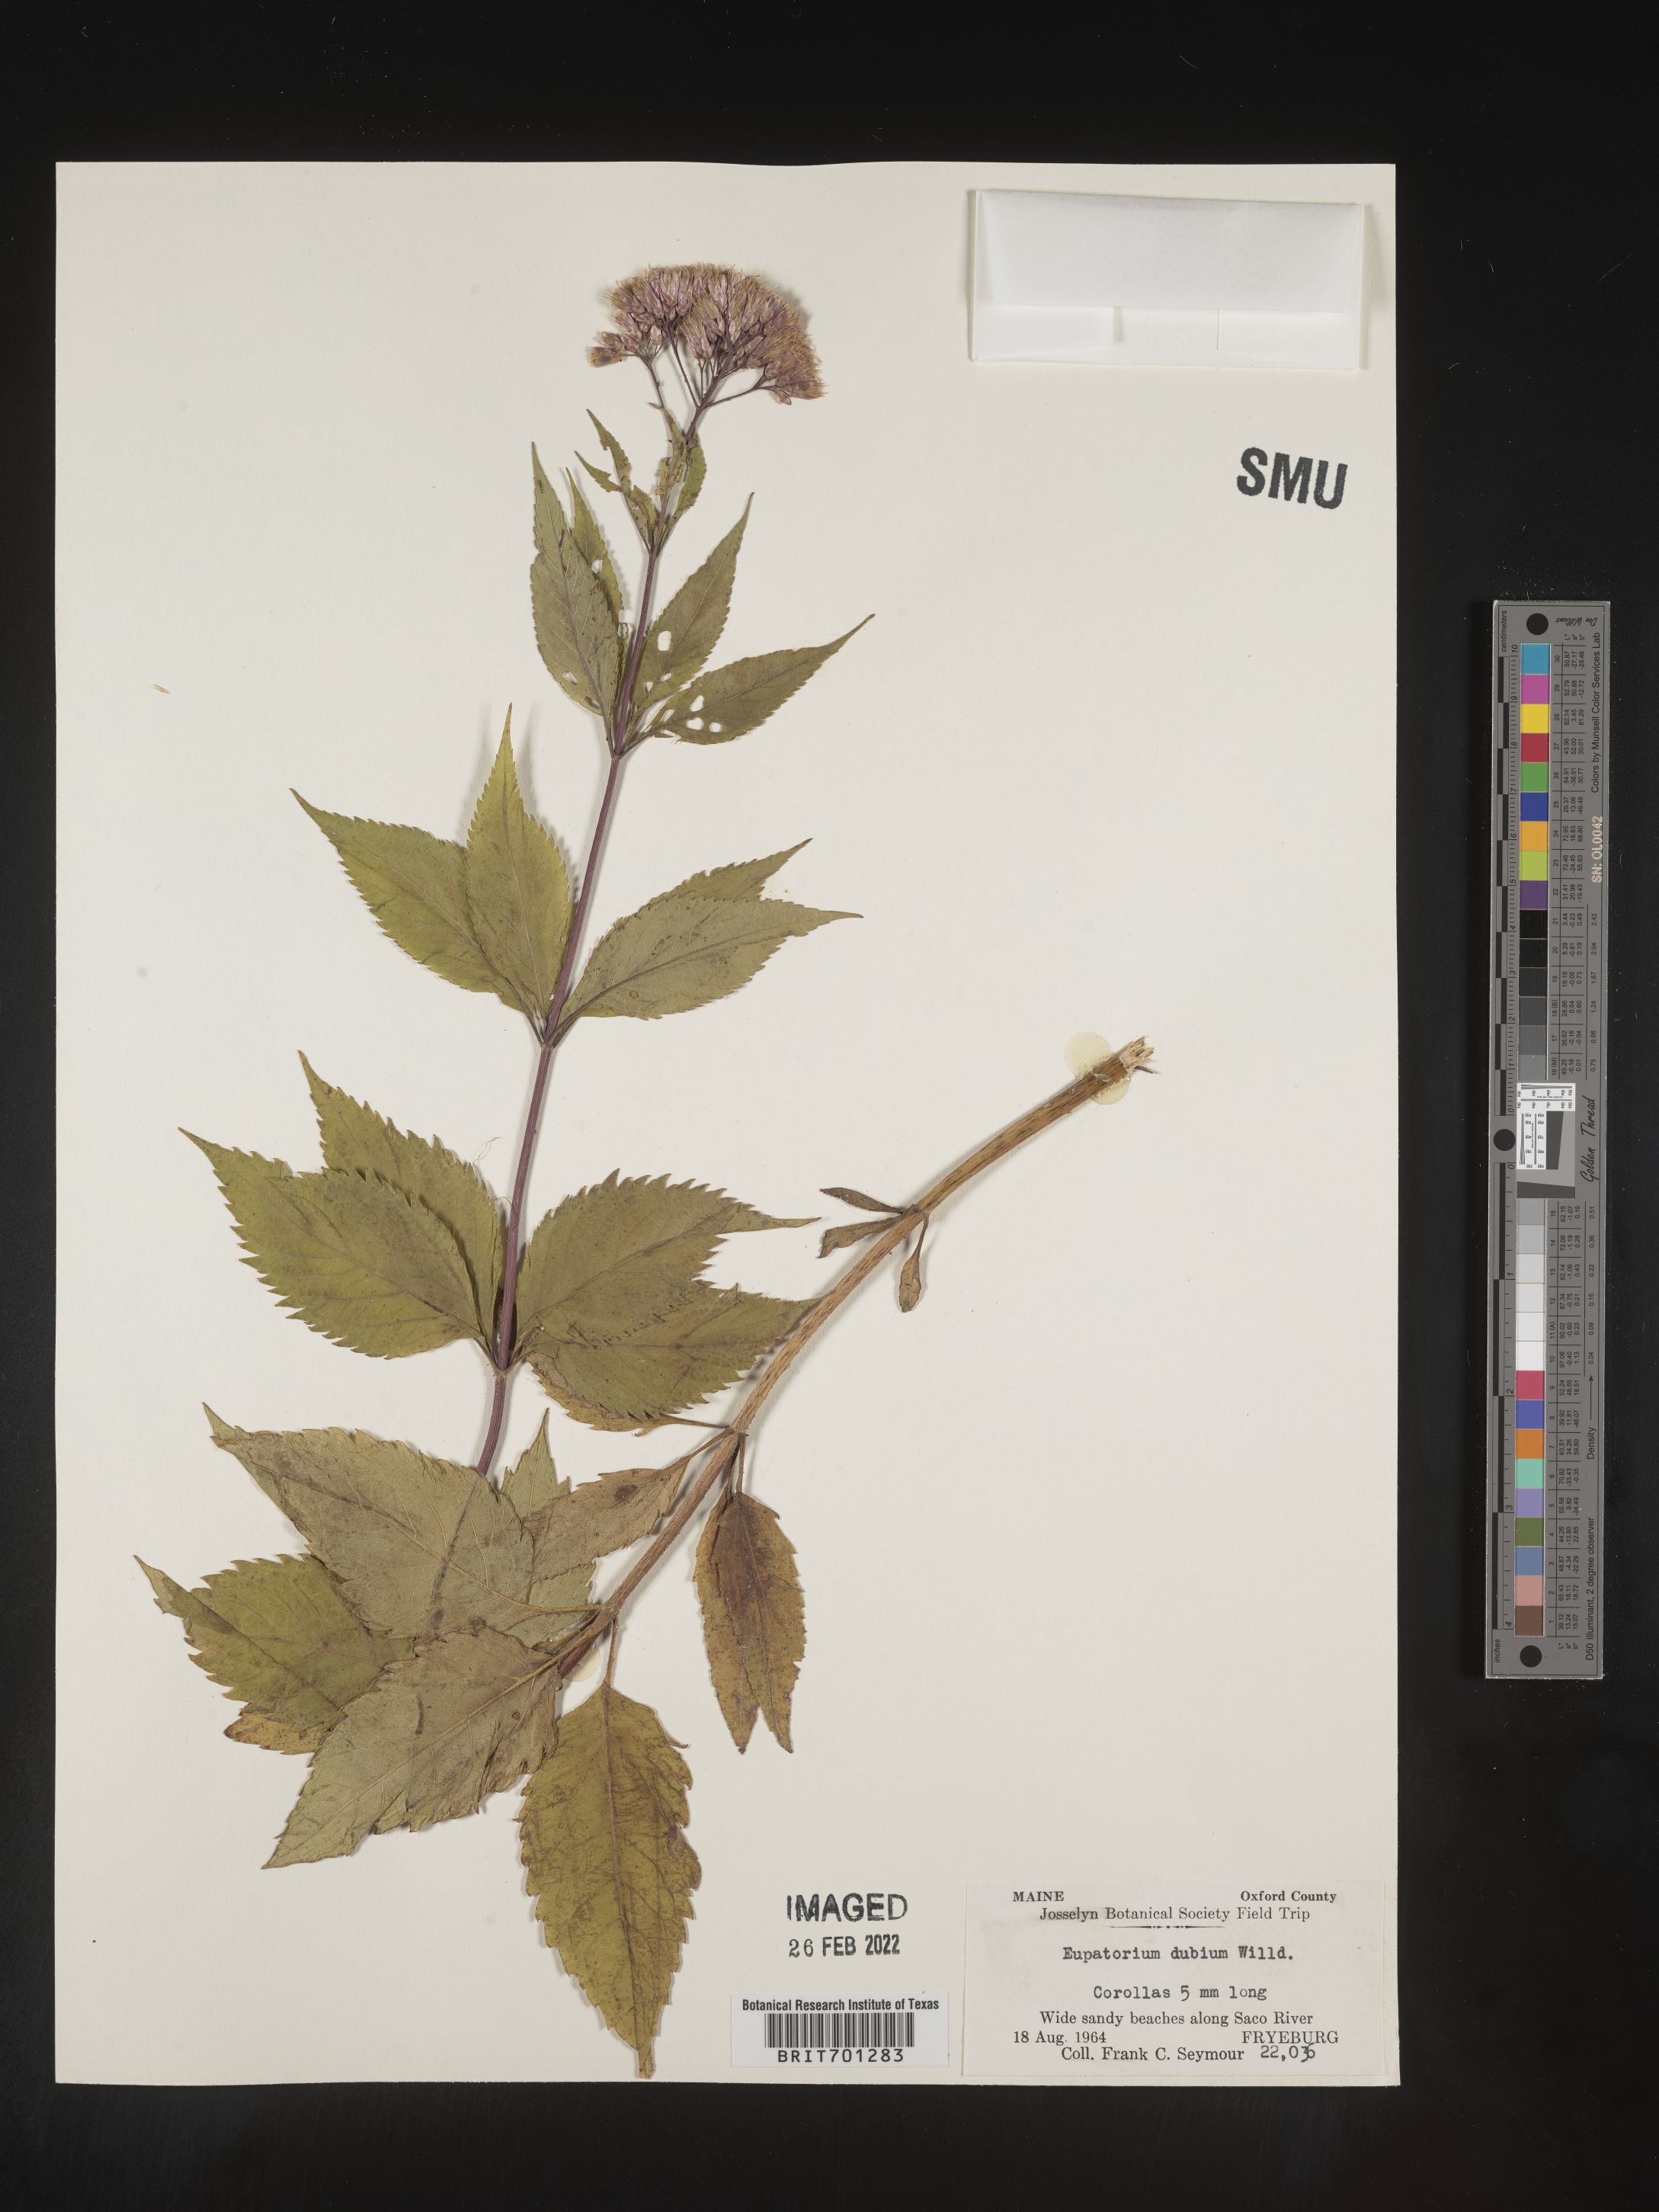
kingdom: Plantae
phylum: Tracheophyta
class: Magnoliopsida
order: Asterales
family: Asteraceae
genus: Eutrochium
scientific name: Eutrochium dubium
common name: Coastal plain joe pye weed
